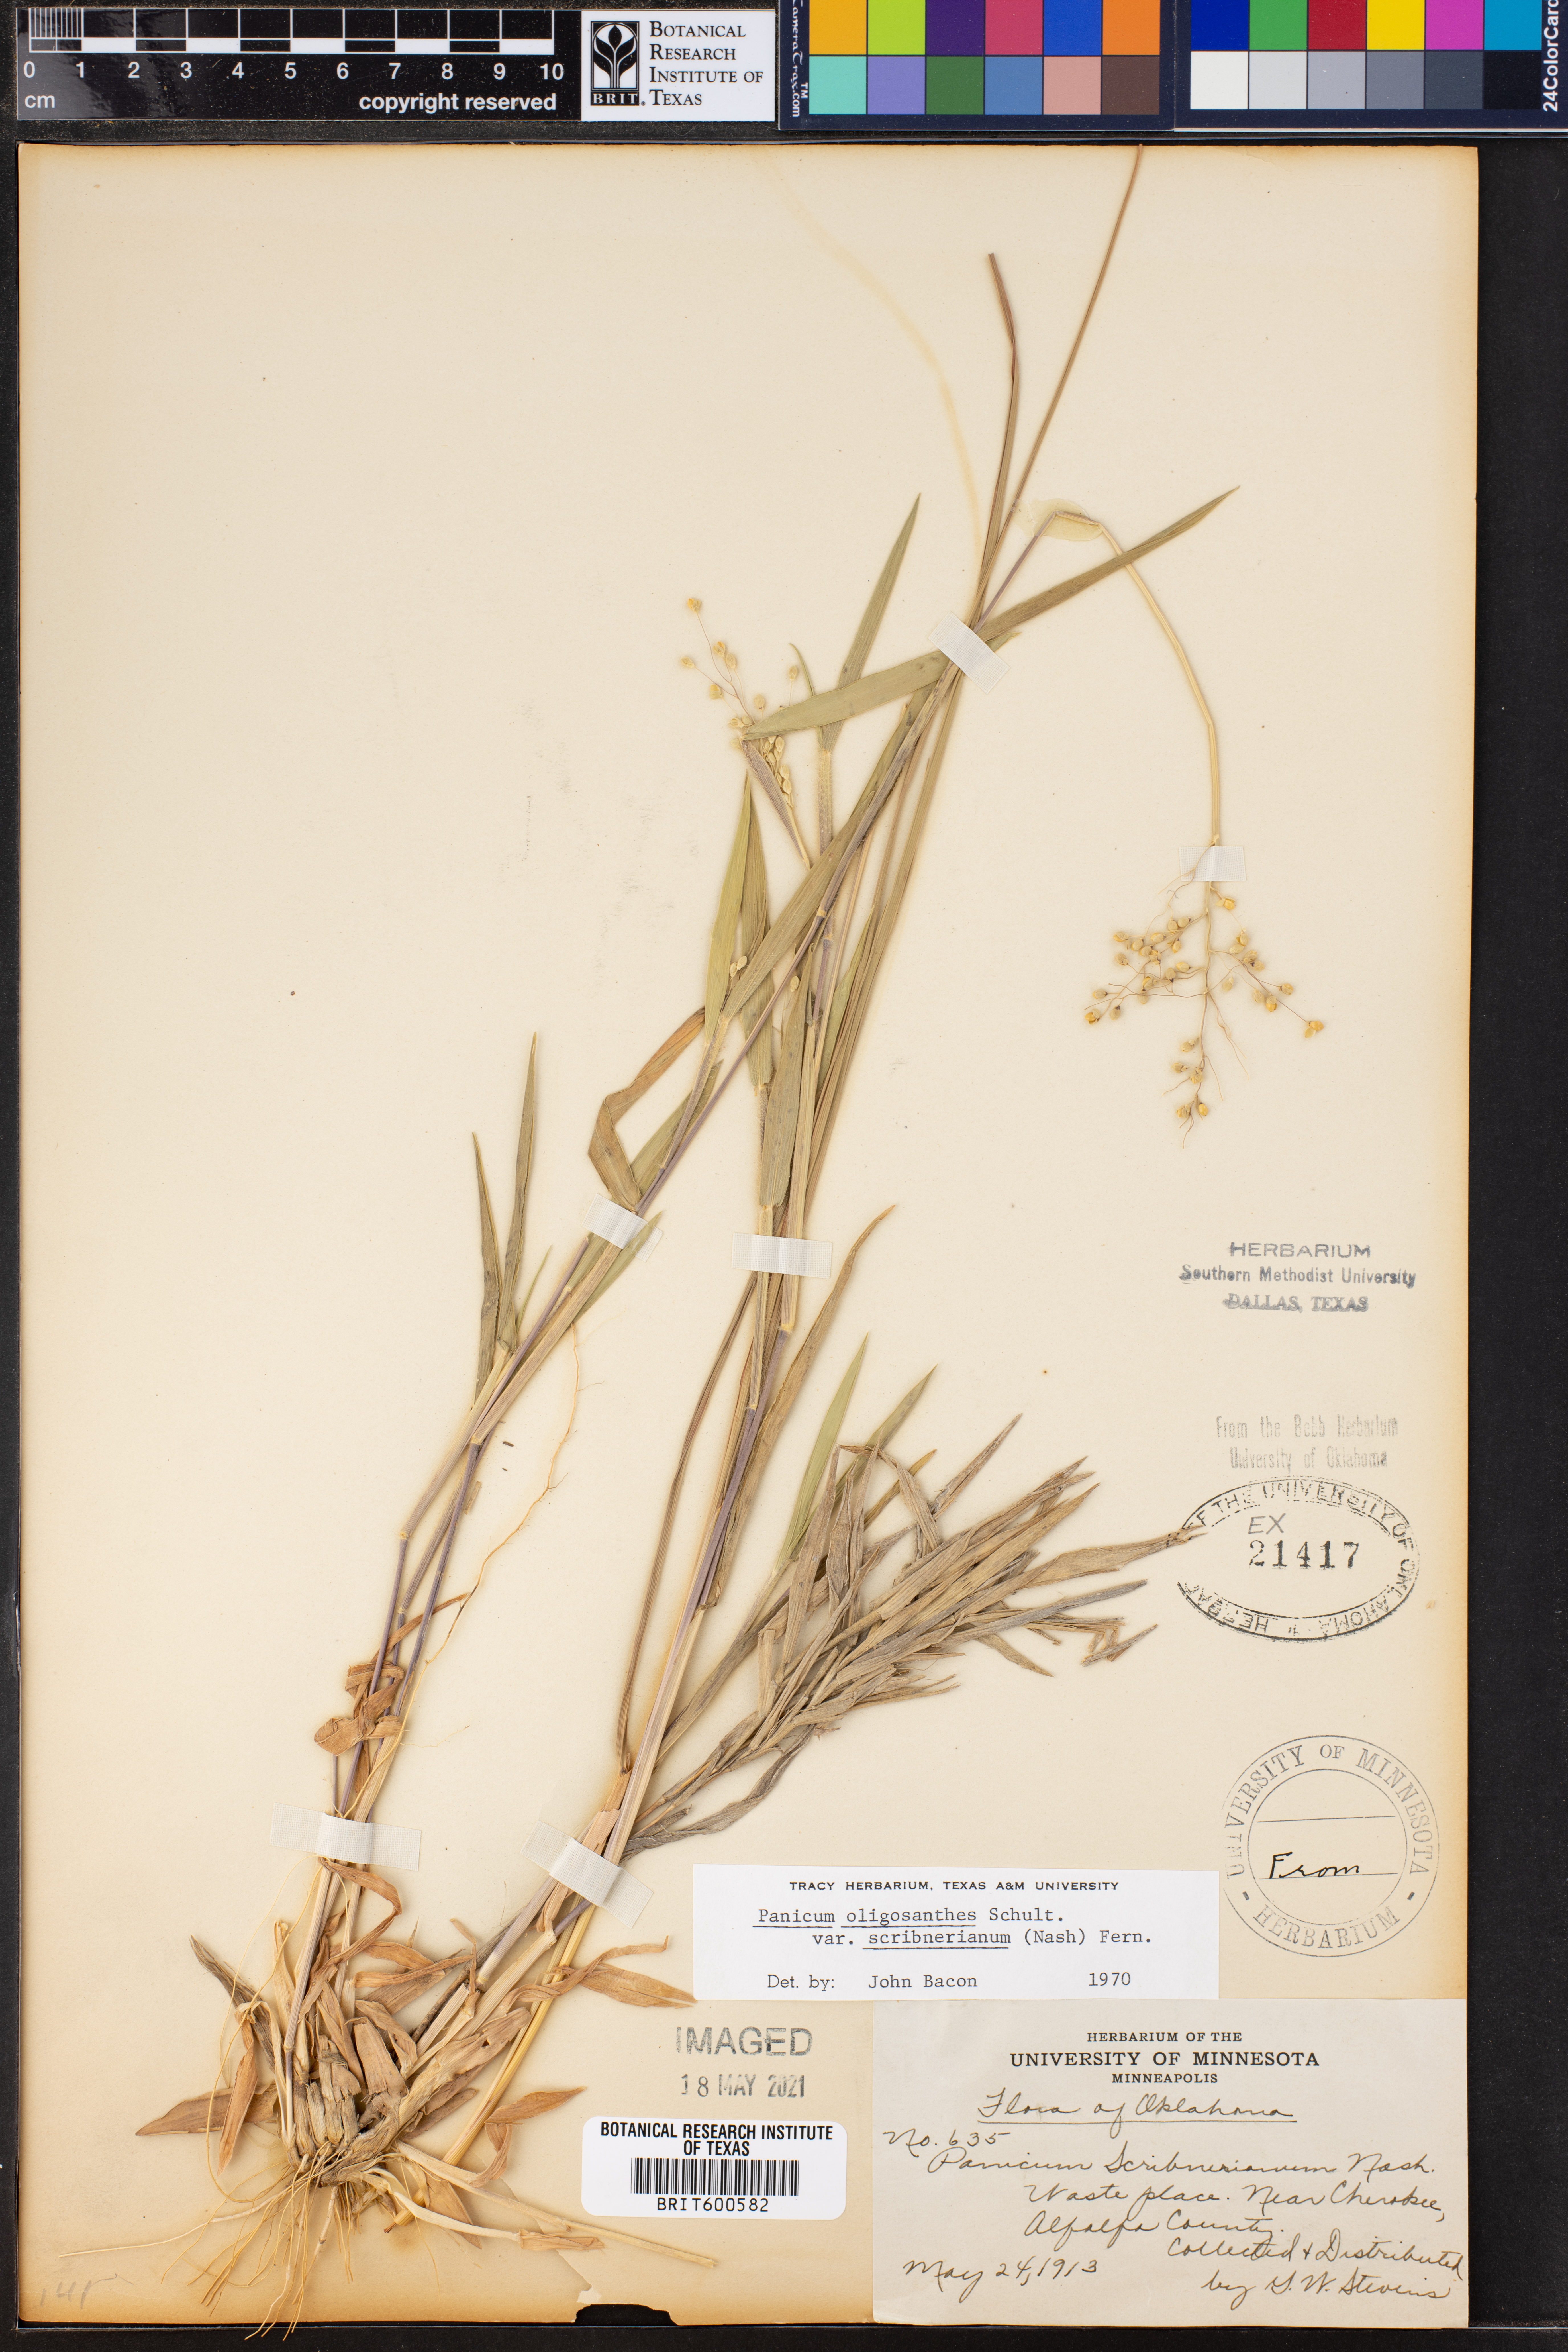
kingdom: Plantae
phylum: Tracheophyta
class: Liliopsida
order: Poales
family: Poaceae
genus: Dichanthelium
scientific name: Dichanthelium scribnerianum
